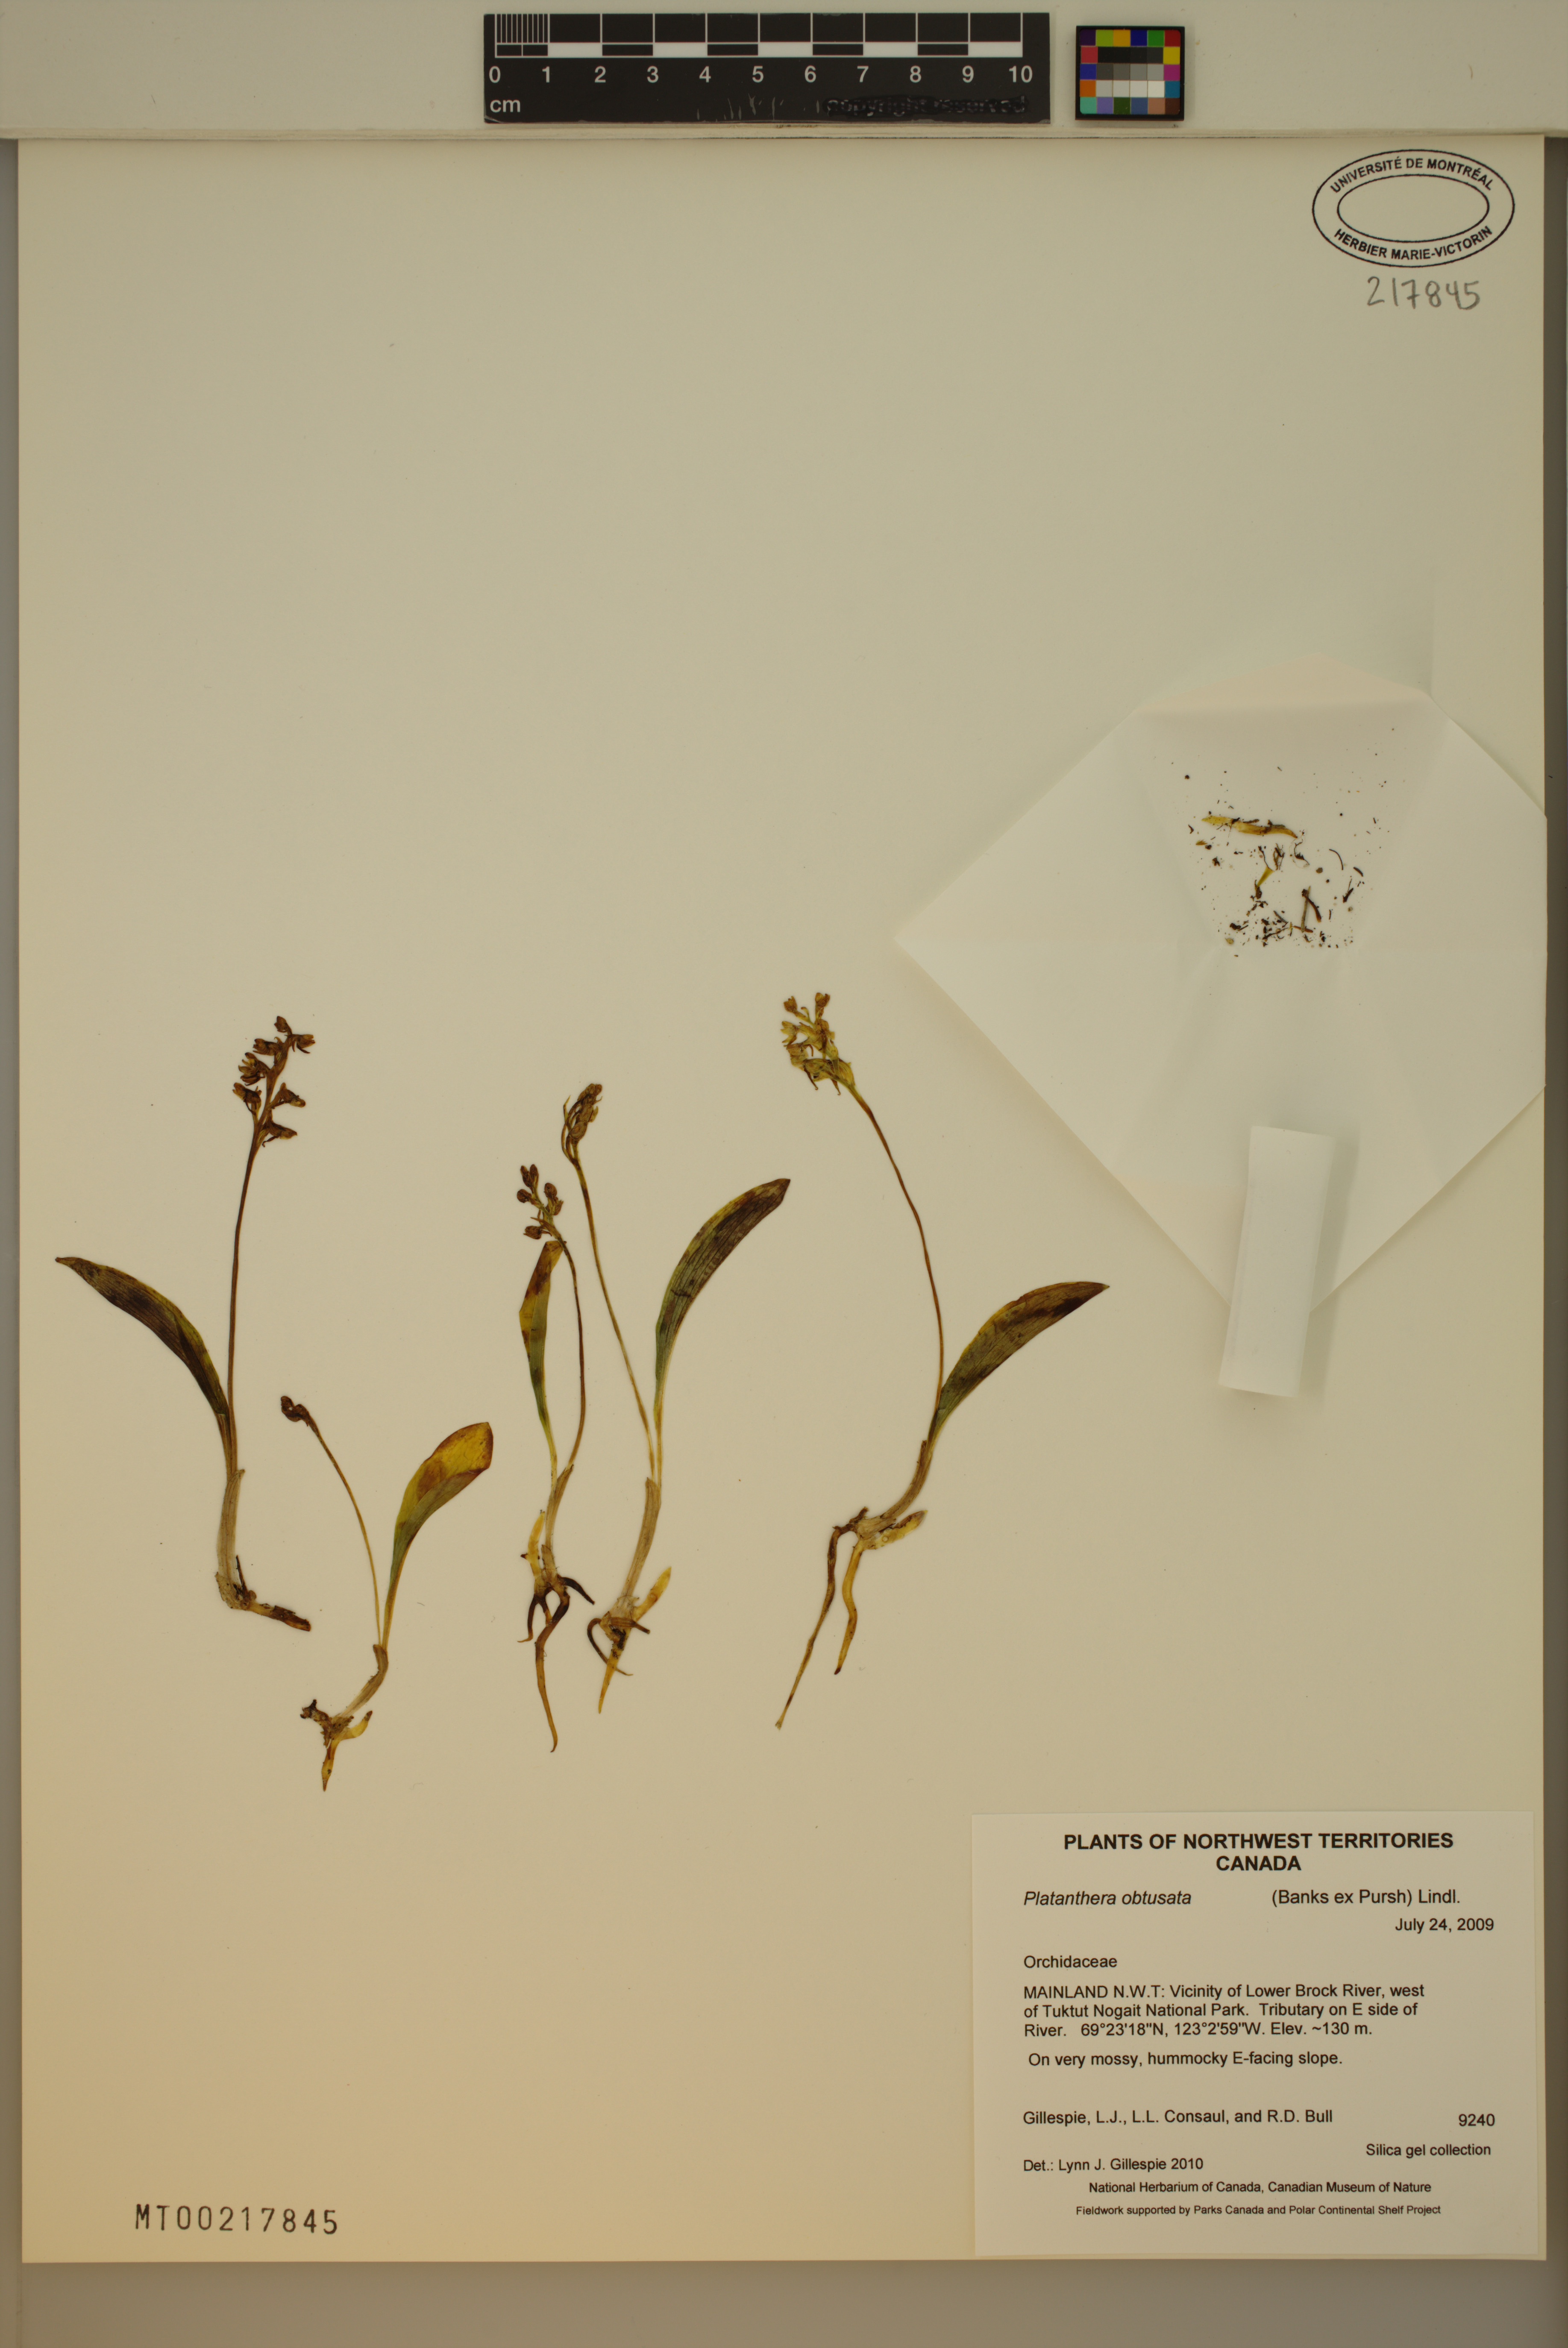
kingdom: Plantae
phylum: Tracheophyta
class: Liliopsida
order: Asparagales
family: Orchidaceae
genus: Platanthera
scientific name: Platanthera obtusata
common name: Blunt bog orchid
